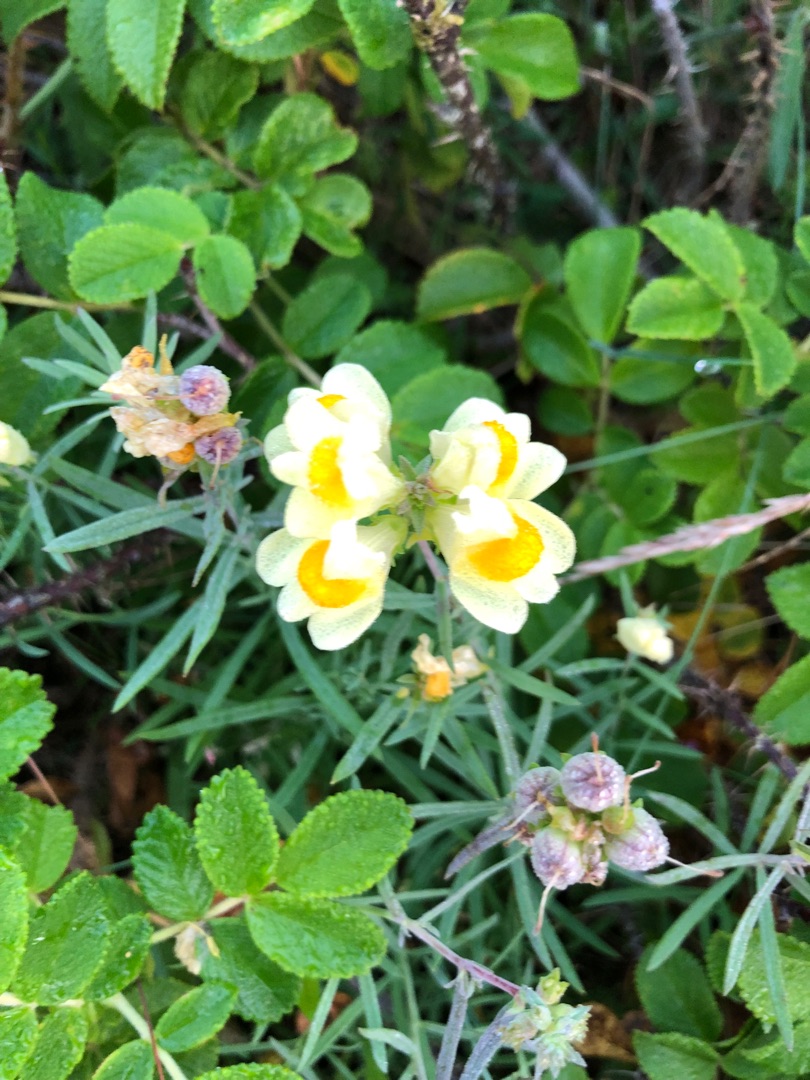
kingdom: Plantae
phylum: Tracheophyta
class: Magnoliopsida
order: Lamiales
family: Plantaginaceae
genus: Linaria
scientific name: Linaria vulgaris
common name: Almindelig torskemund
